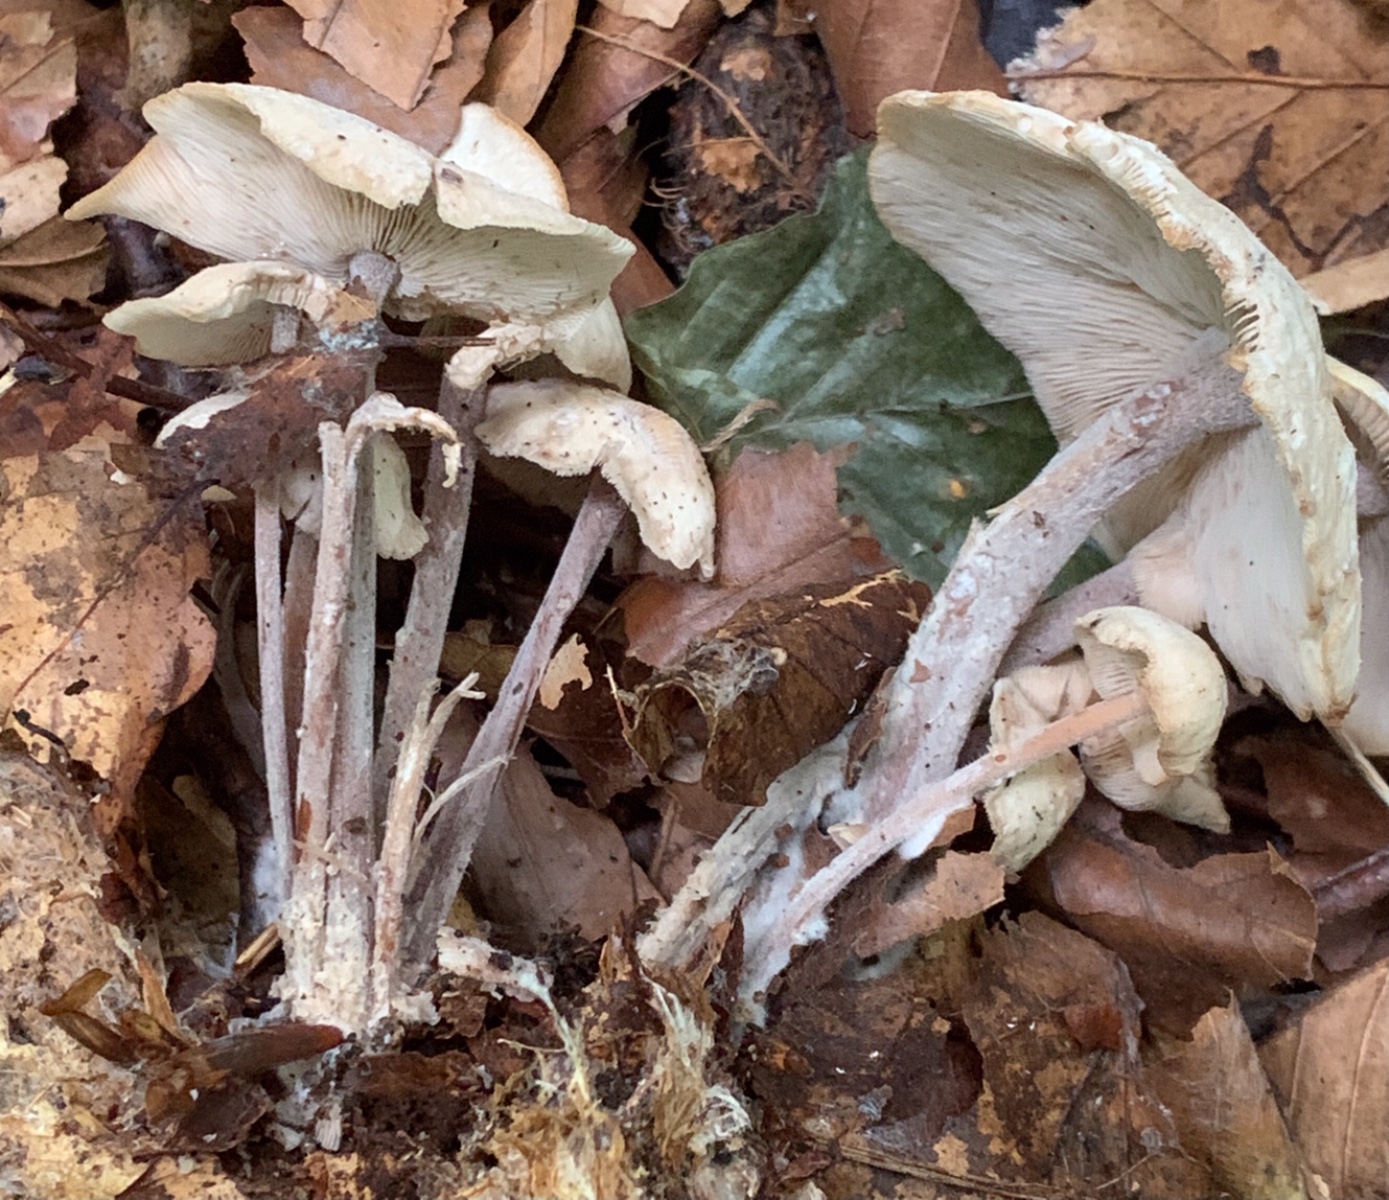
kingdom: Fungi
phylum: Basidiomycota
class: Agaricomycetes
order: Agaricales
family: Omphalotaceae
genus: Collybiopsis
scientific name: Collybiopsis confluens
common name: knippe-fladhat
